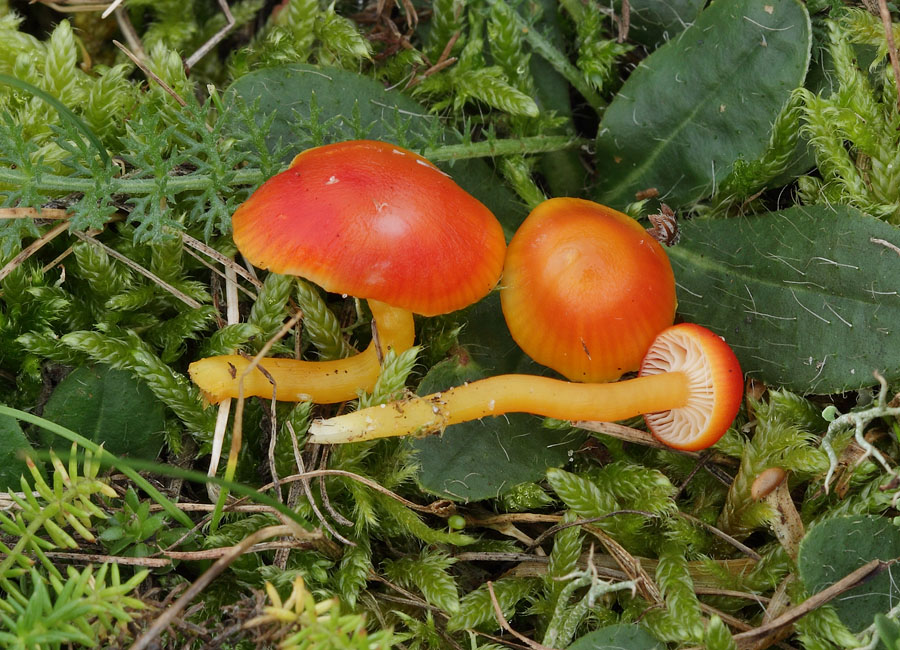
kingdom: Fungi
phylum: Basidiomycota
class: Agaricomycetes
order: Agaricales
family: Hygrophoraceae
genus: Hygrocybe
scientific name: Hygrocybe insipida
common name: liden vokshat
